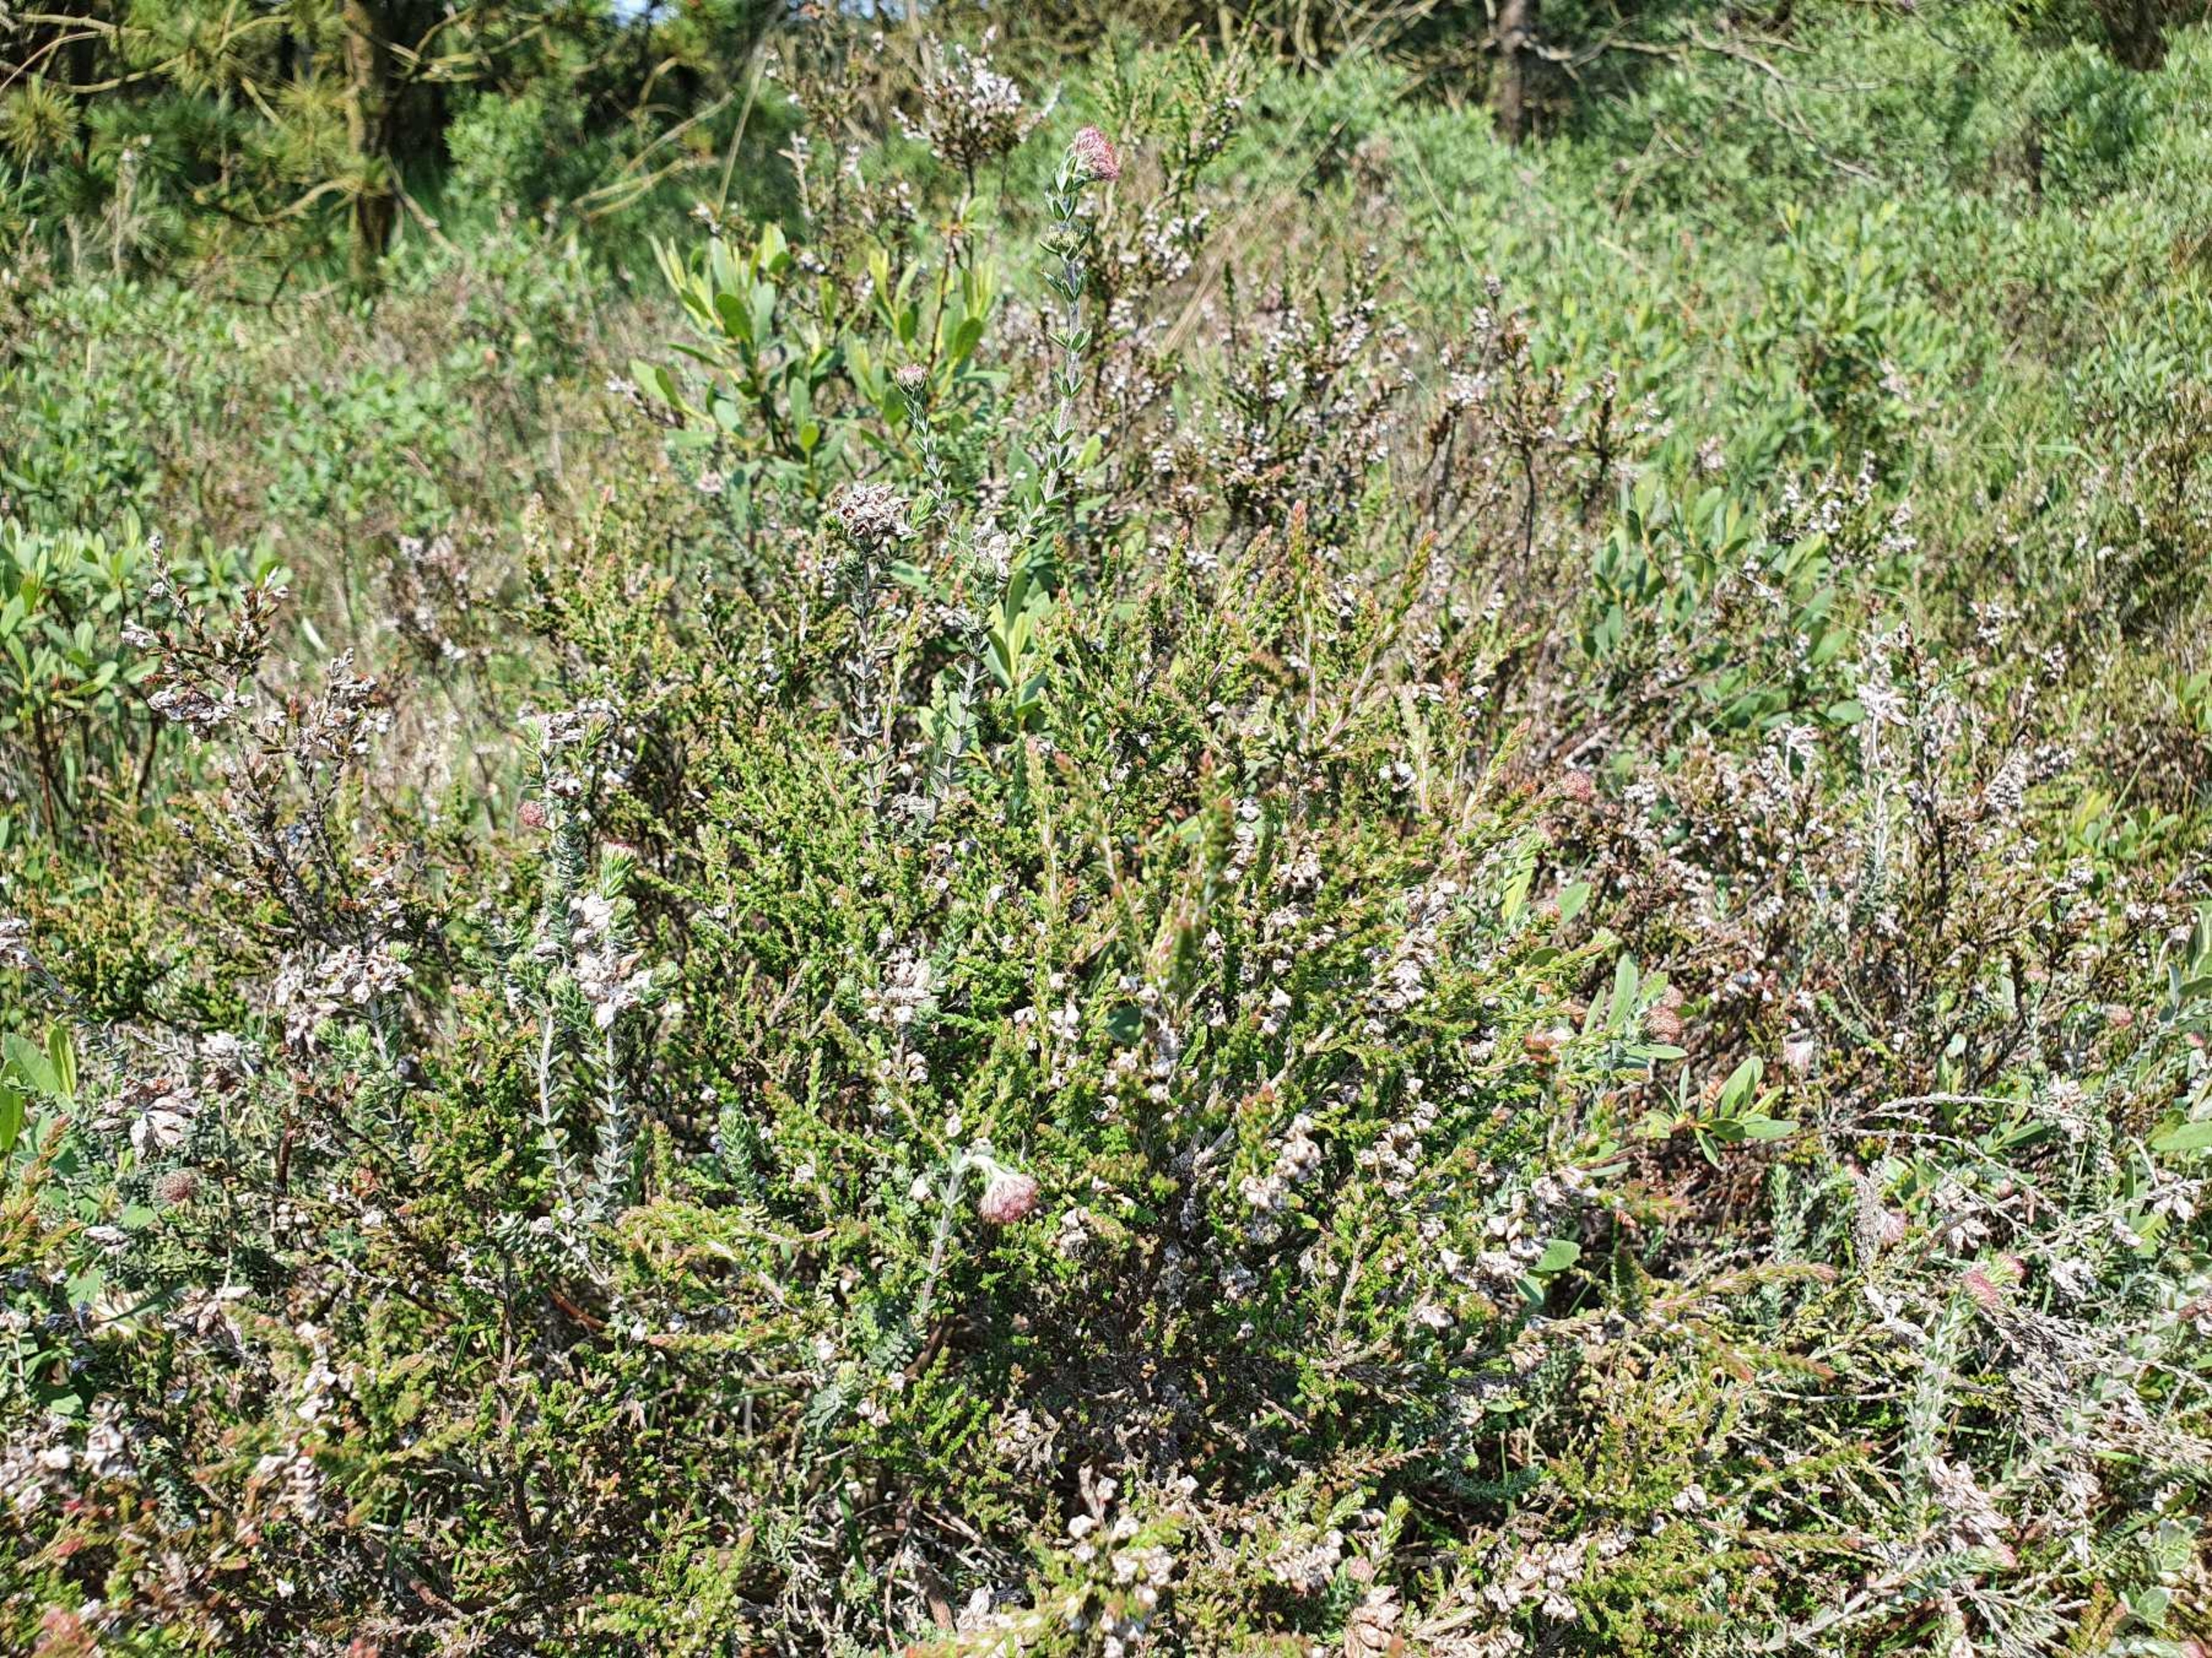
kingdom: Plantae
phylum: Tracheophyta
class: Magnoliopsida
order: Ericales
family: Ericaceae
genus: Calluna
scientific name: Calluna vulgaris
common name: Hedelyng
